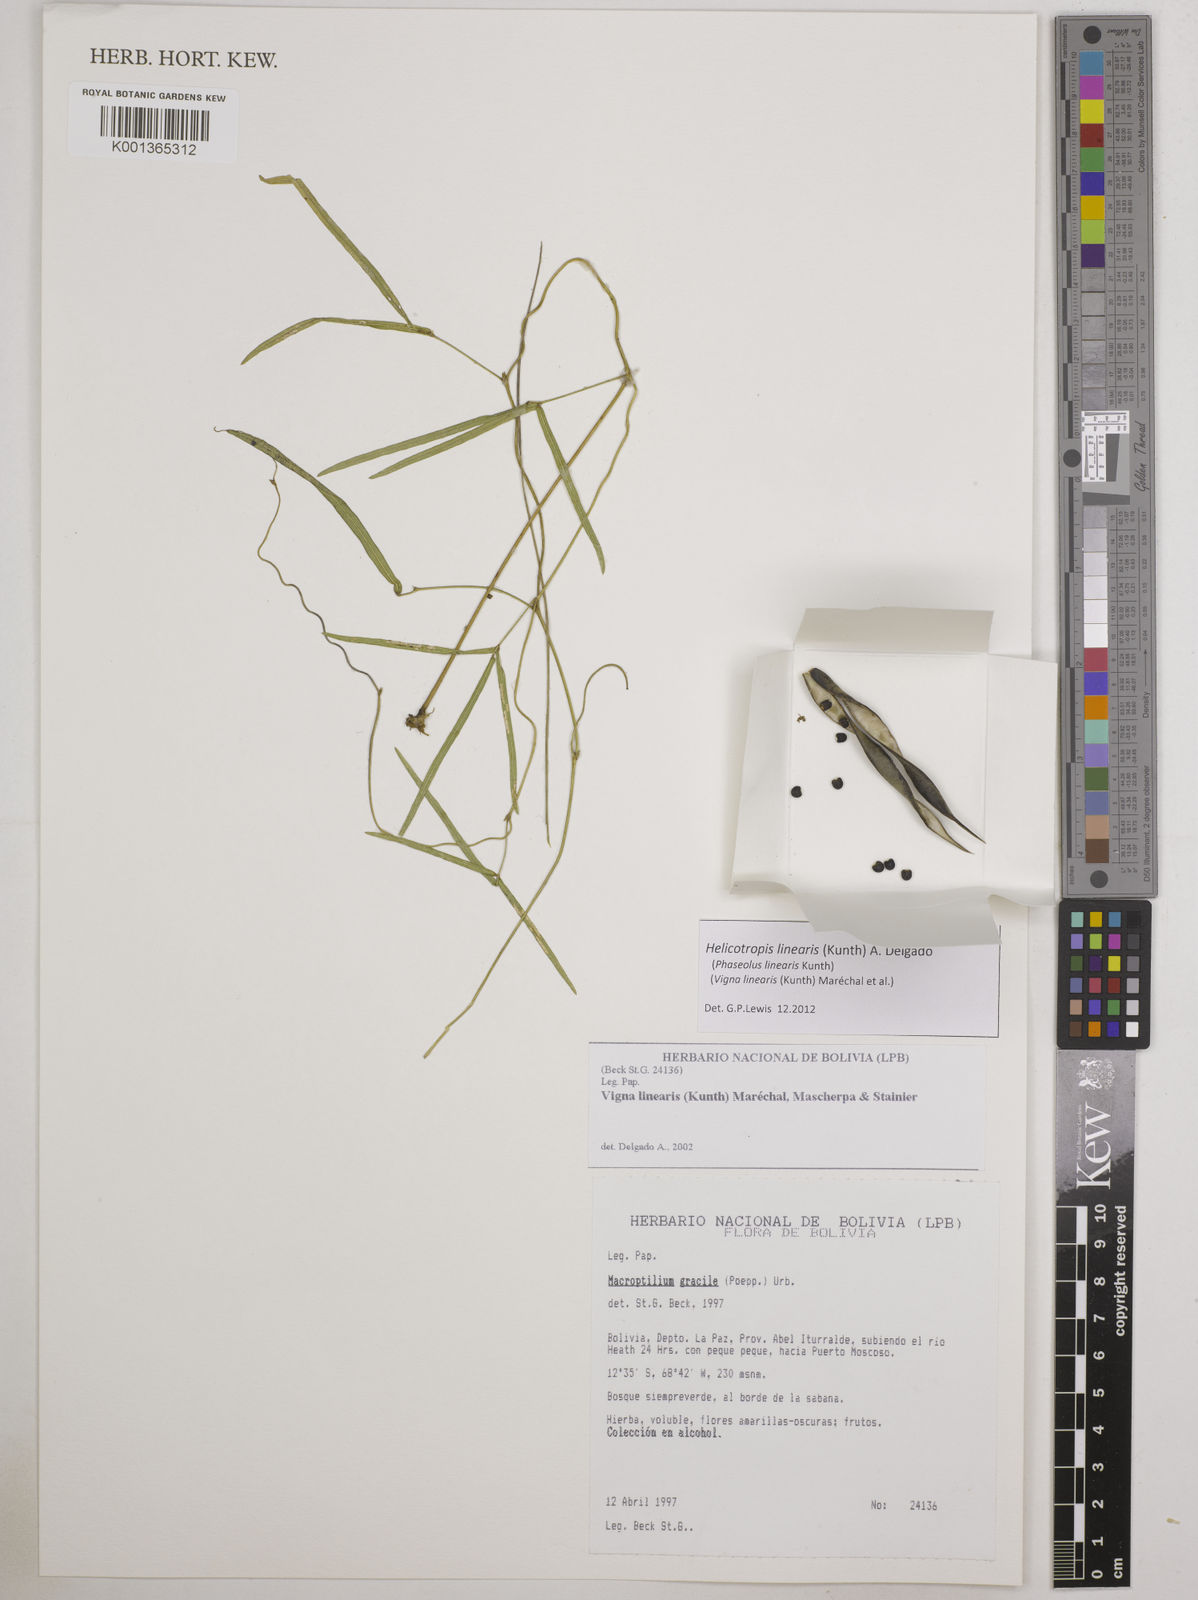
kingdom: Plantae
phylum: Tracheophyta
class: Magnoliopsida
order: Fabales
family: Fabaceae
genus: Helicotropis
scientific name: Helicotropis linearis
